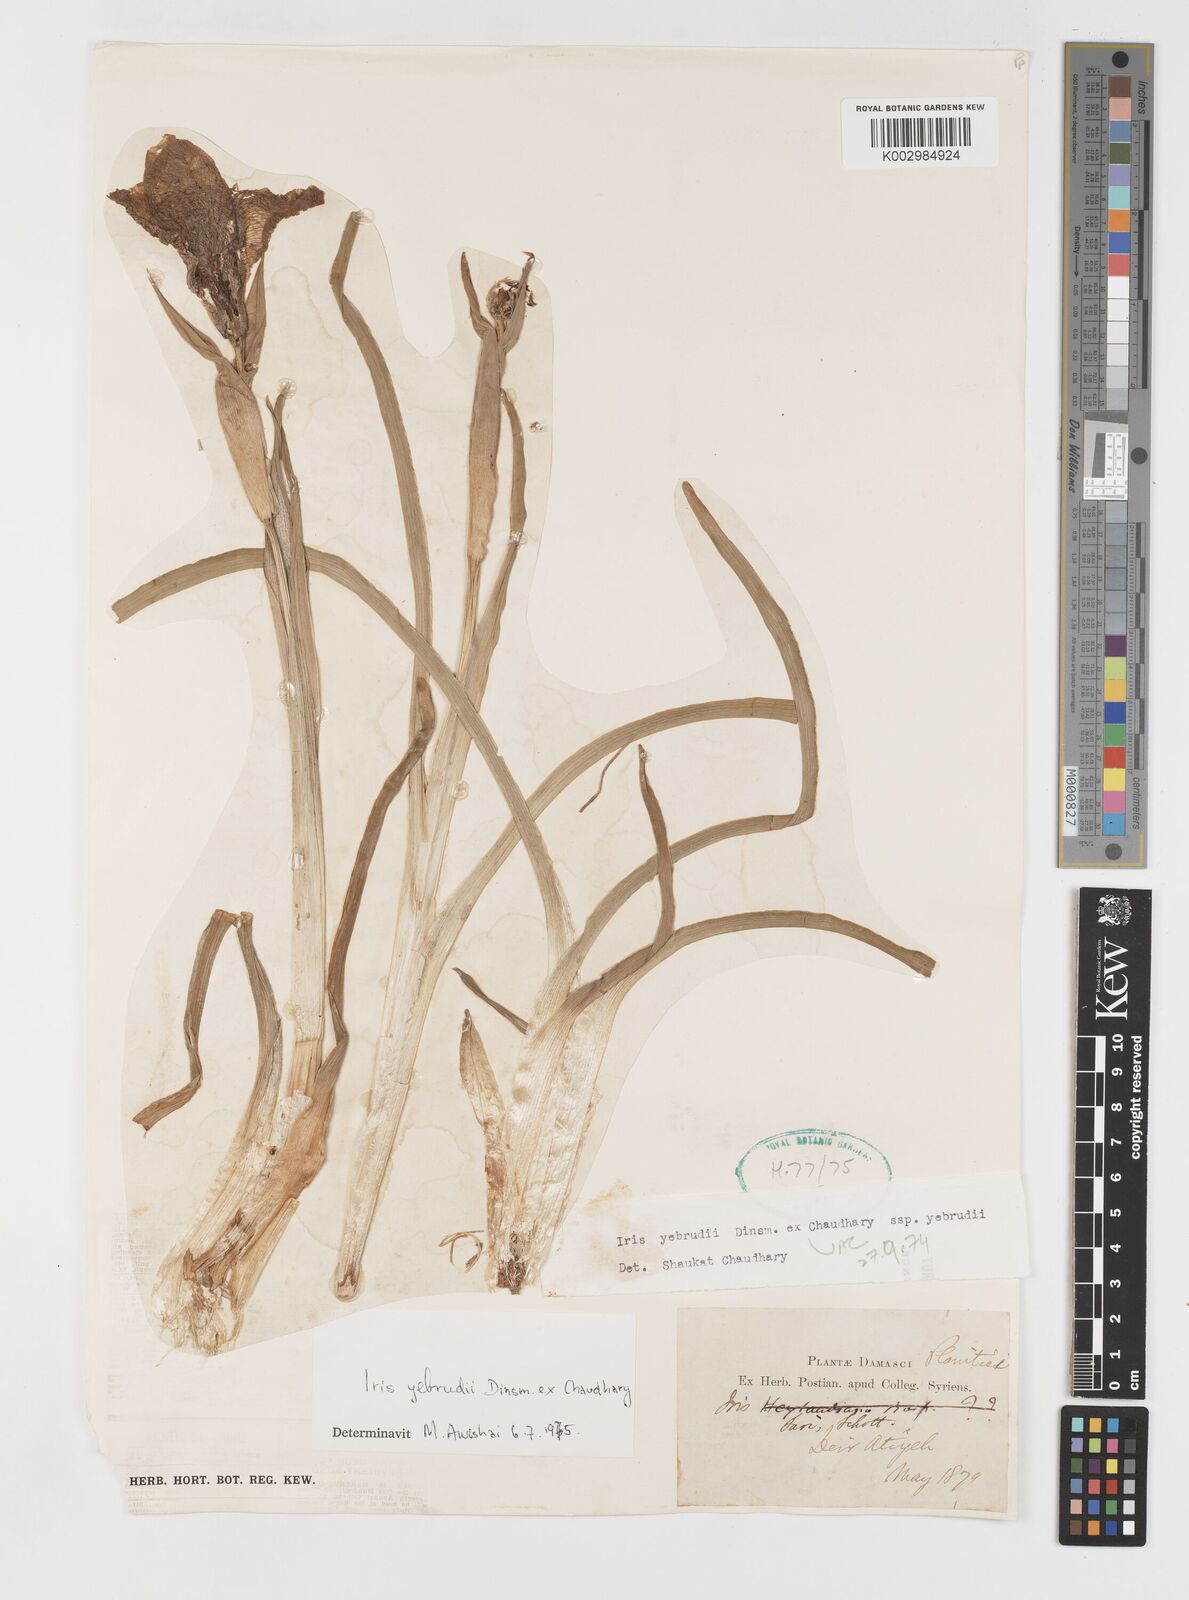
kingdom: Plantae
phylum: Tracheophyta
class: Liliopsida
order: Asparagales
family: Iridaceae
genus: Iris
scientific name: Iris yebrudii
